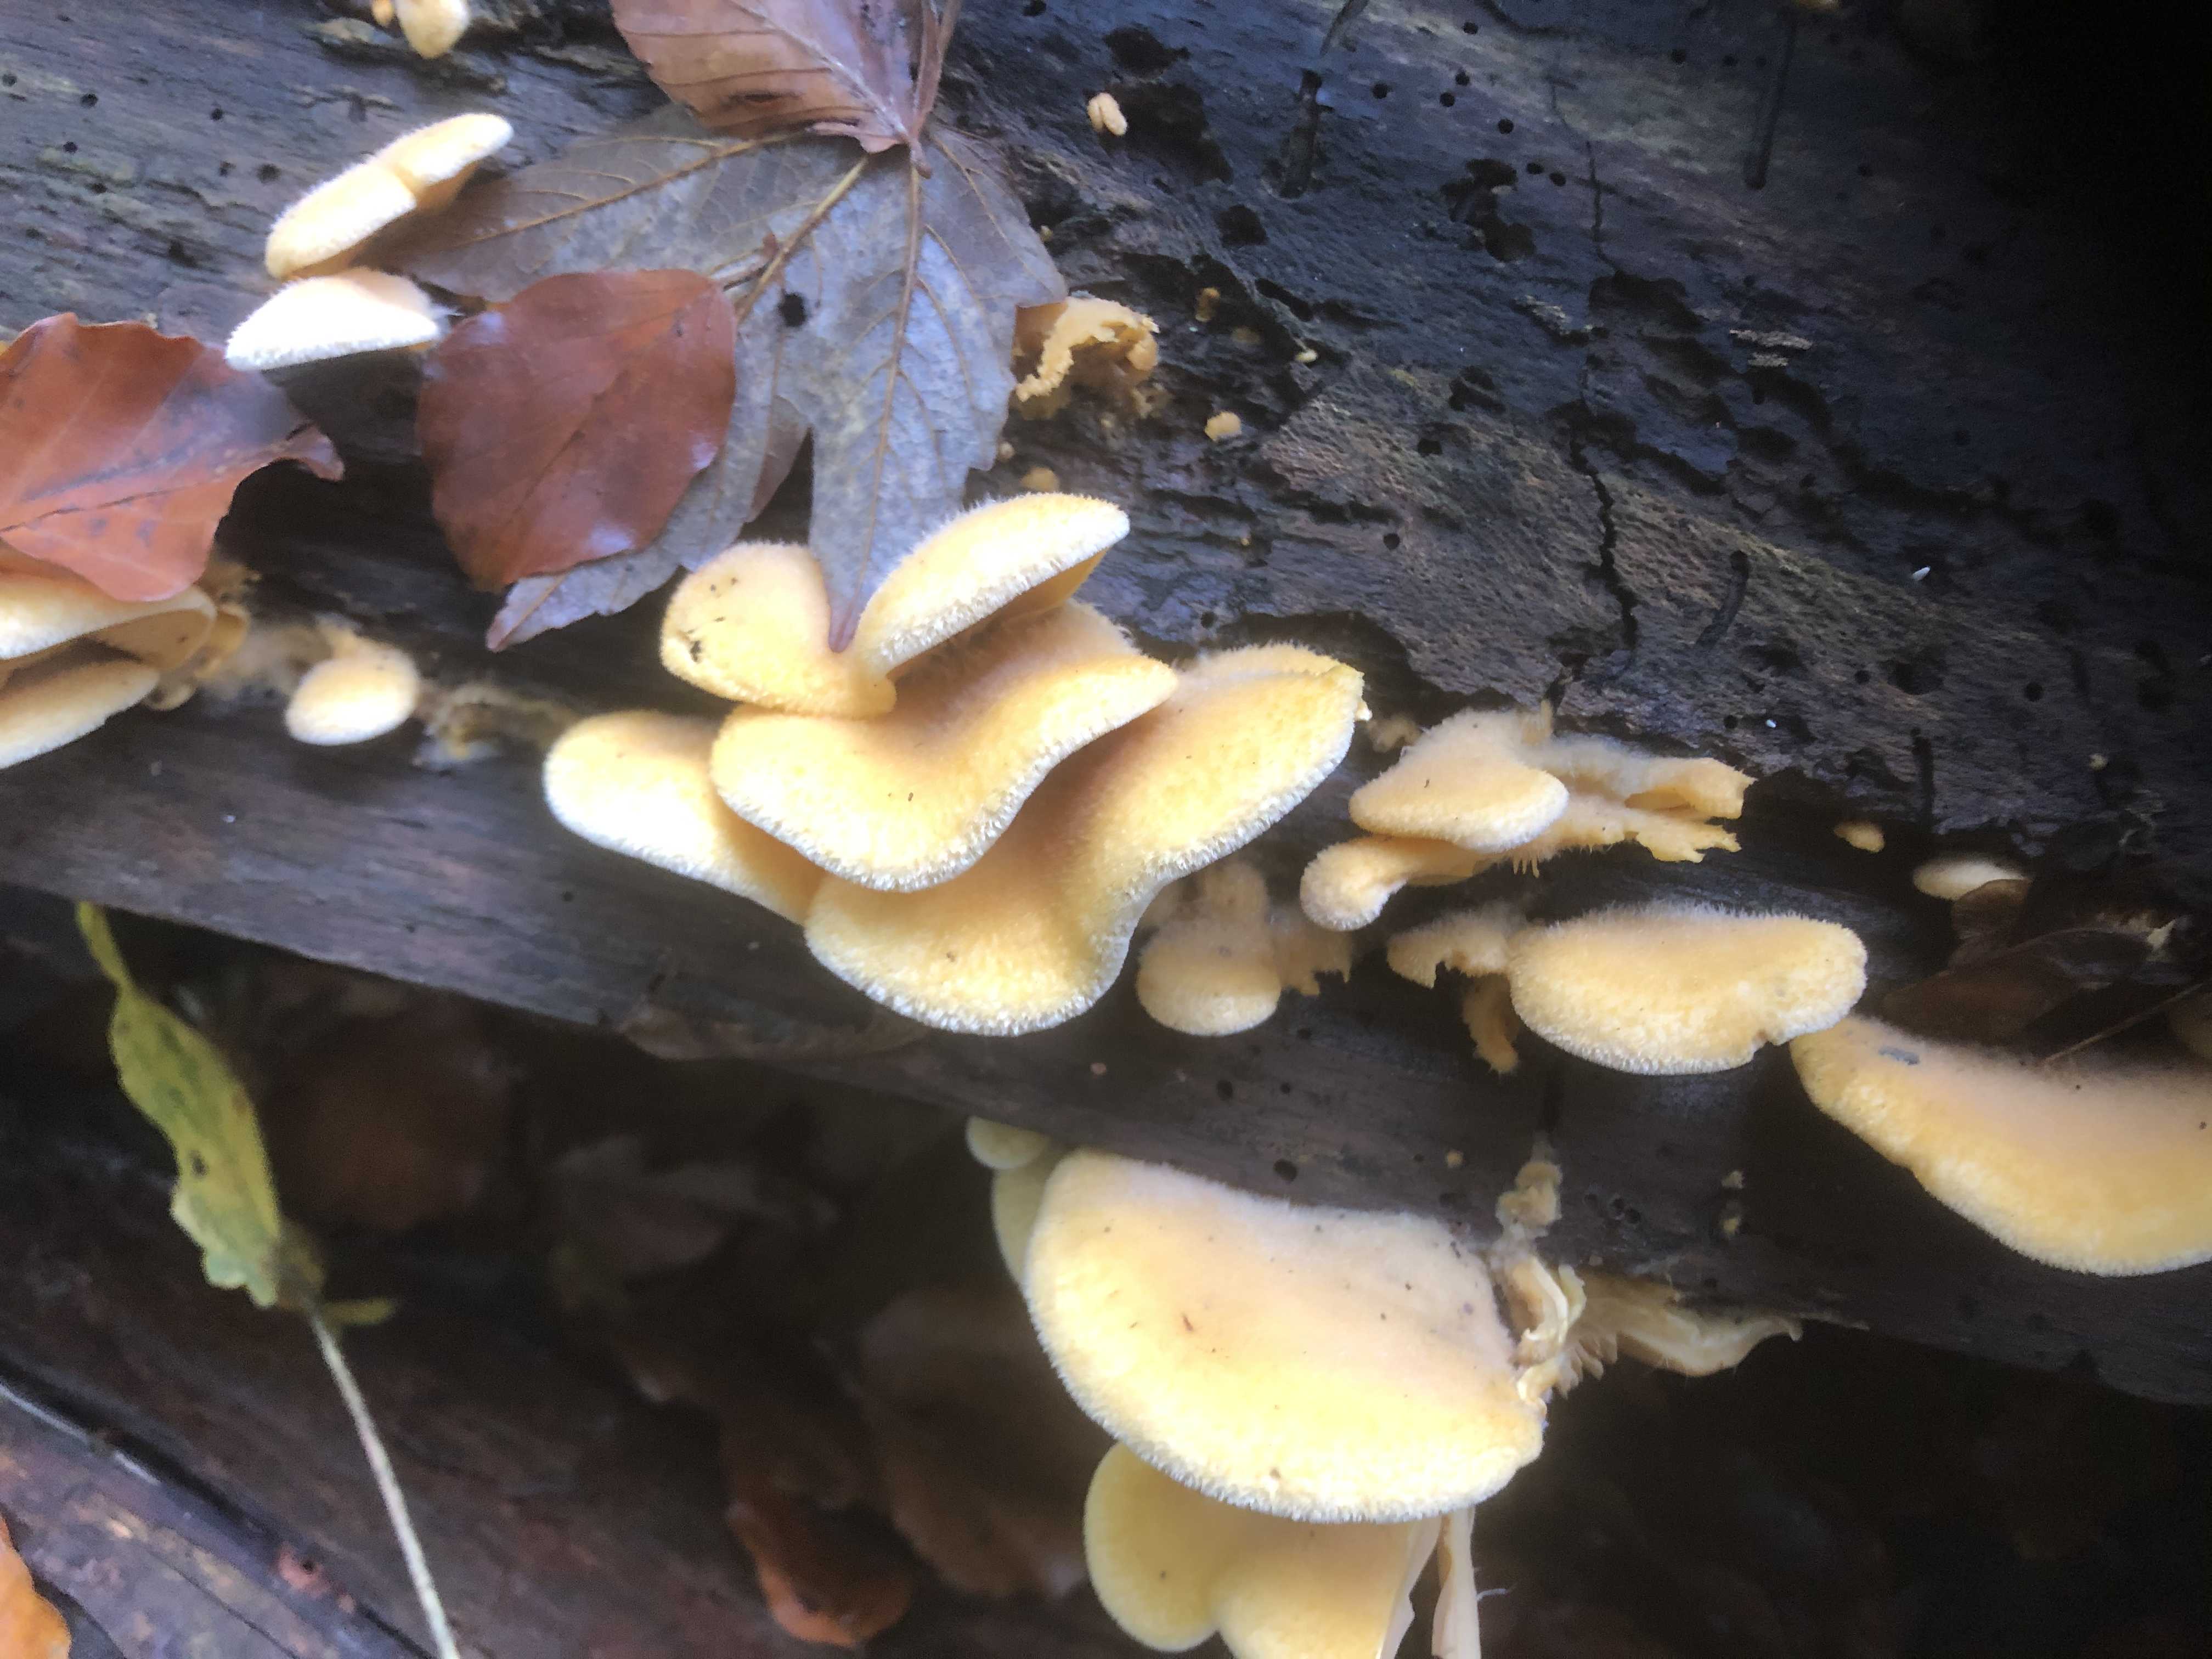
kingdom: Fungi
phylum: Basidiomycota
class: Agaricomycetes
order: Agaricales
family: Phyllotopsidaceae
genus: Phyllotopsis
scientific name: Phyllotopsis nidulans
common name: okkerblad
